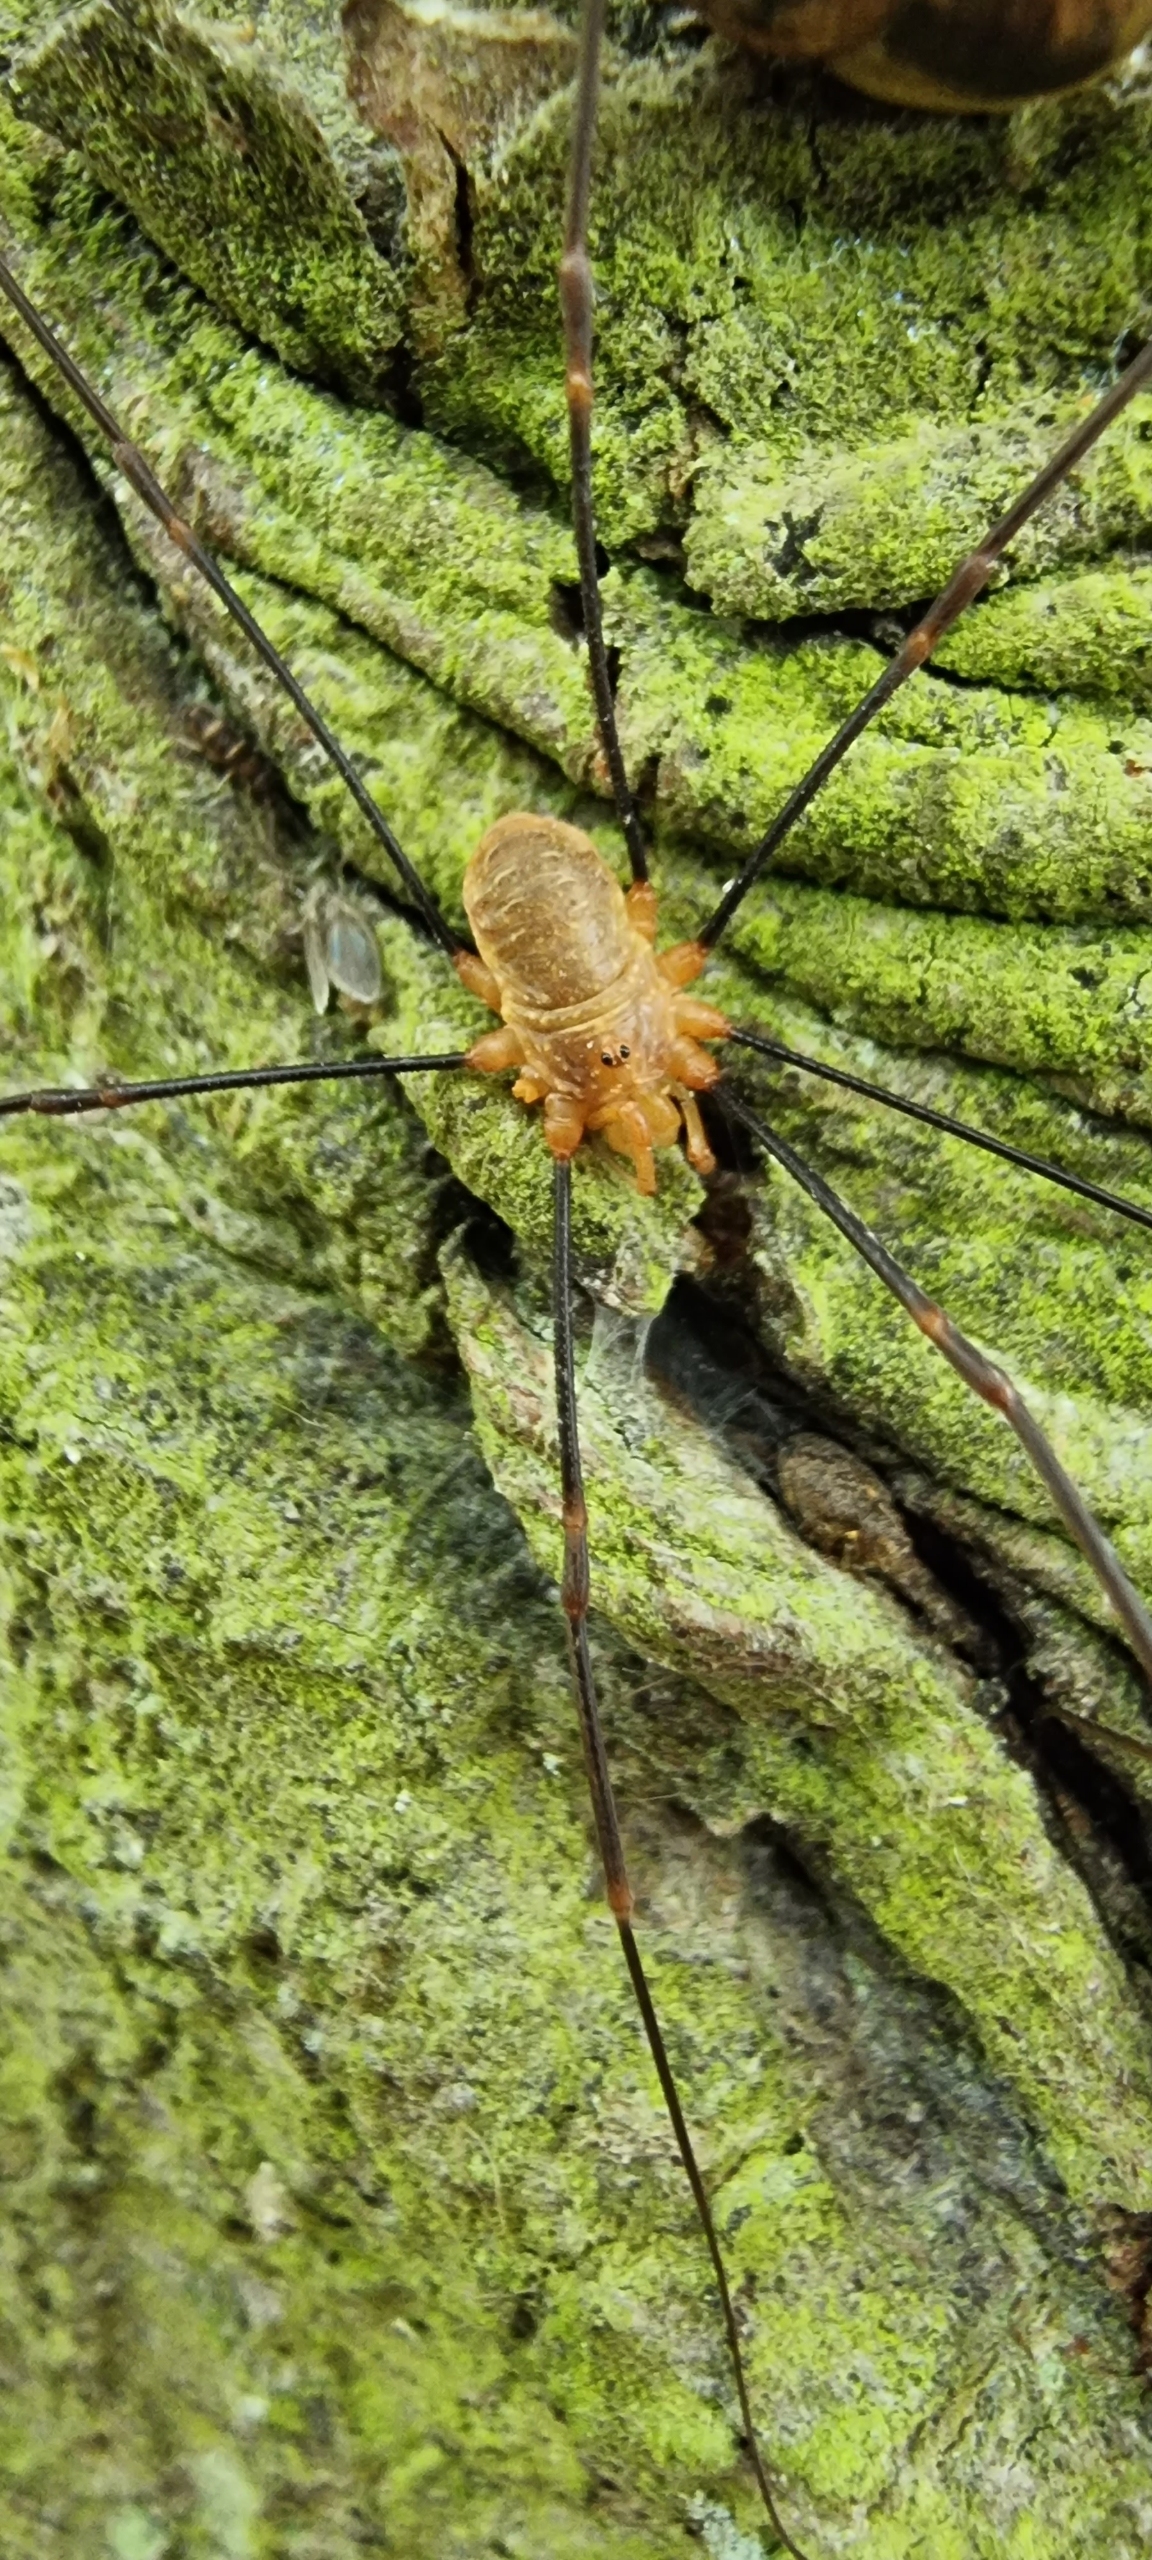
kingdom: Animalia
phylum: Arthropoda
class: Arachnida
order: Opiliones
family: Phalangiidae
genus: Opilio
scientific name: Opilio canestrinii
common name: Orange vægmejer
